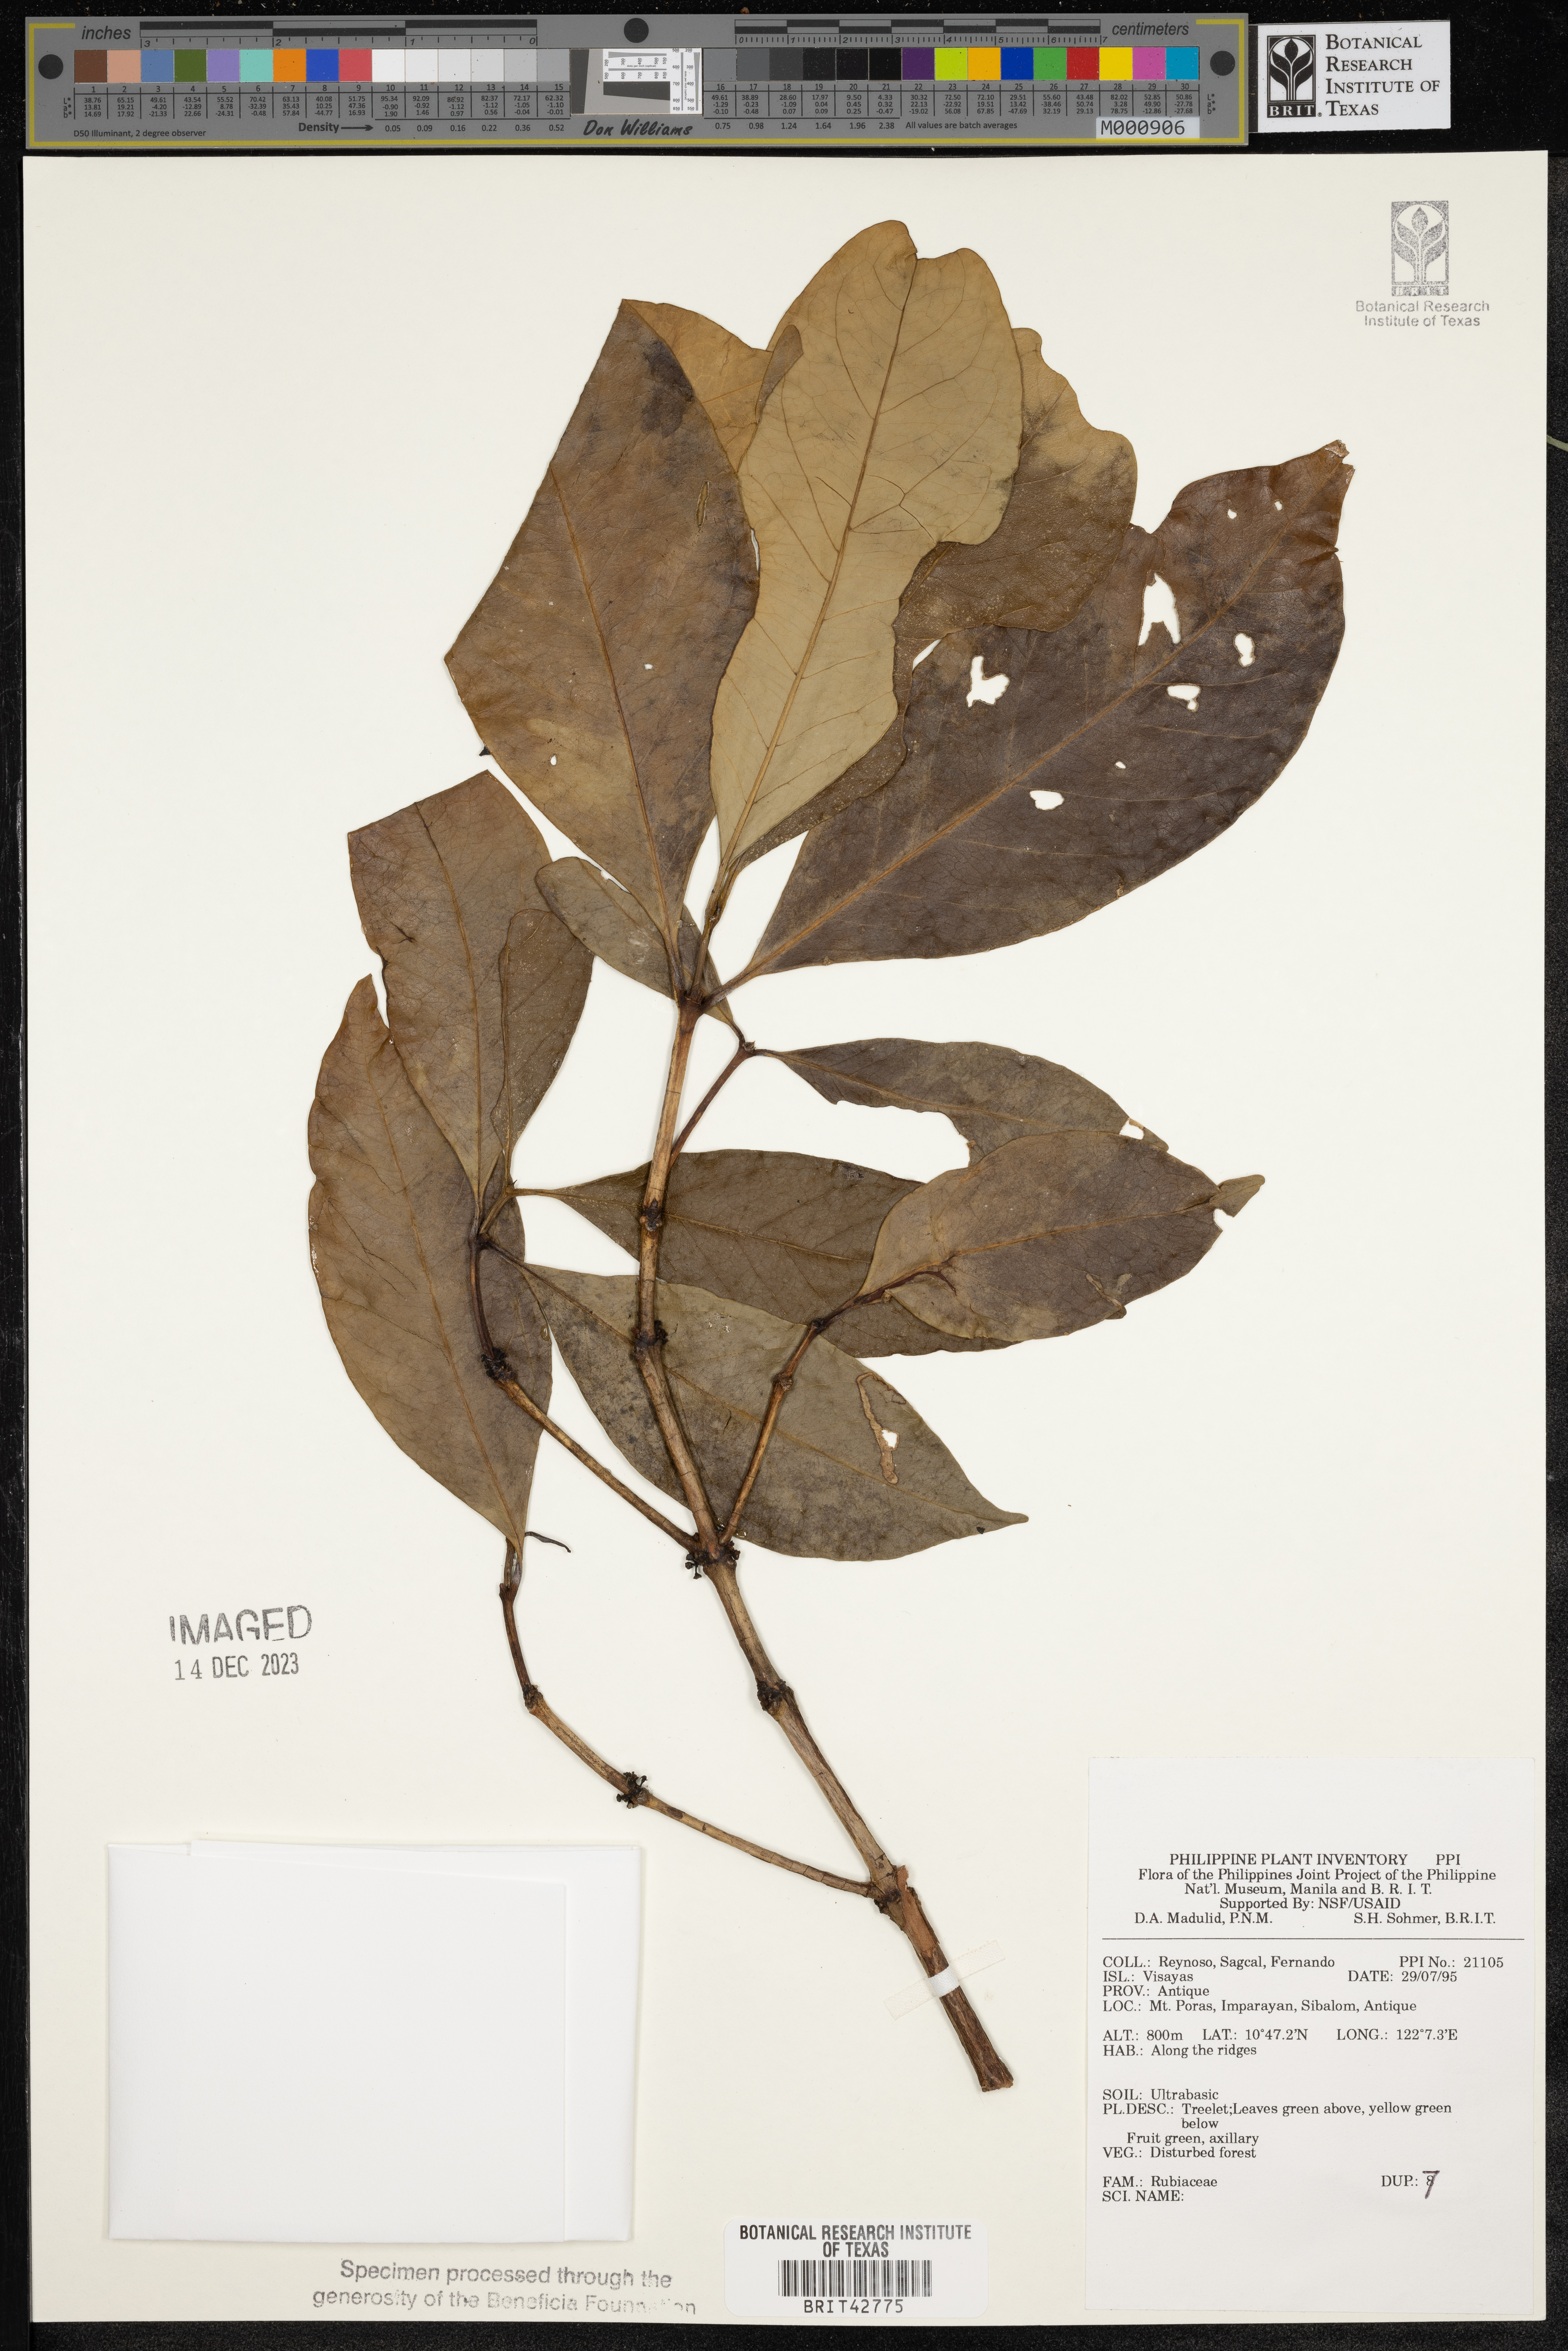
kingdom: Plantae
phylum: Tracheophyta
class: Magnoliopsida
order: Gentianales
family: Rubiaceae
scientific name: Rubiaceae
